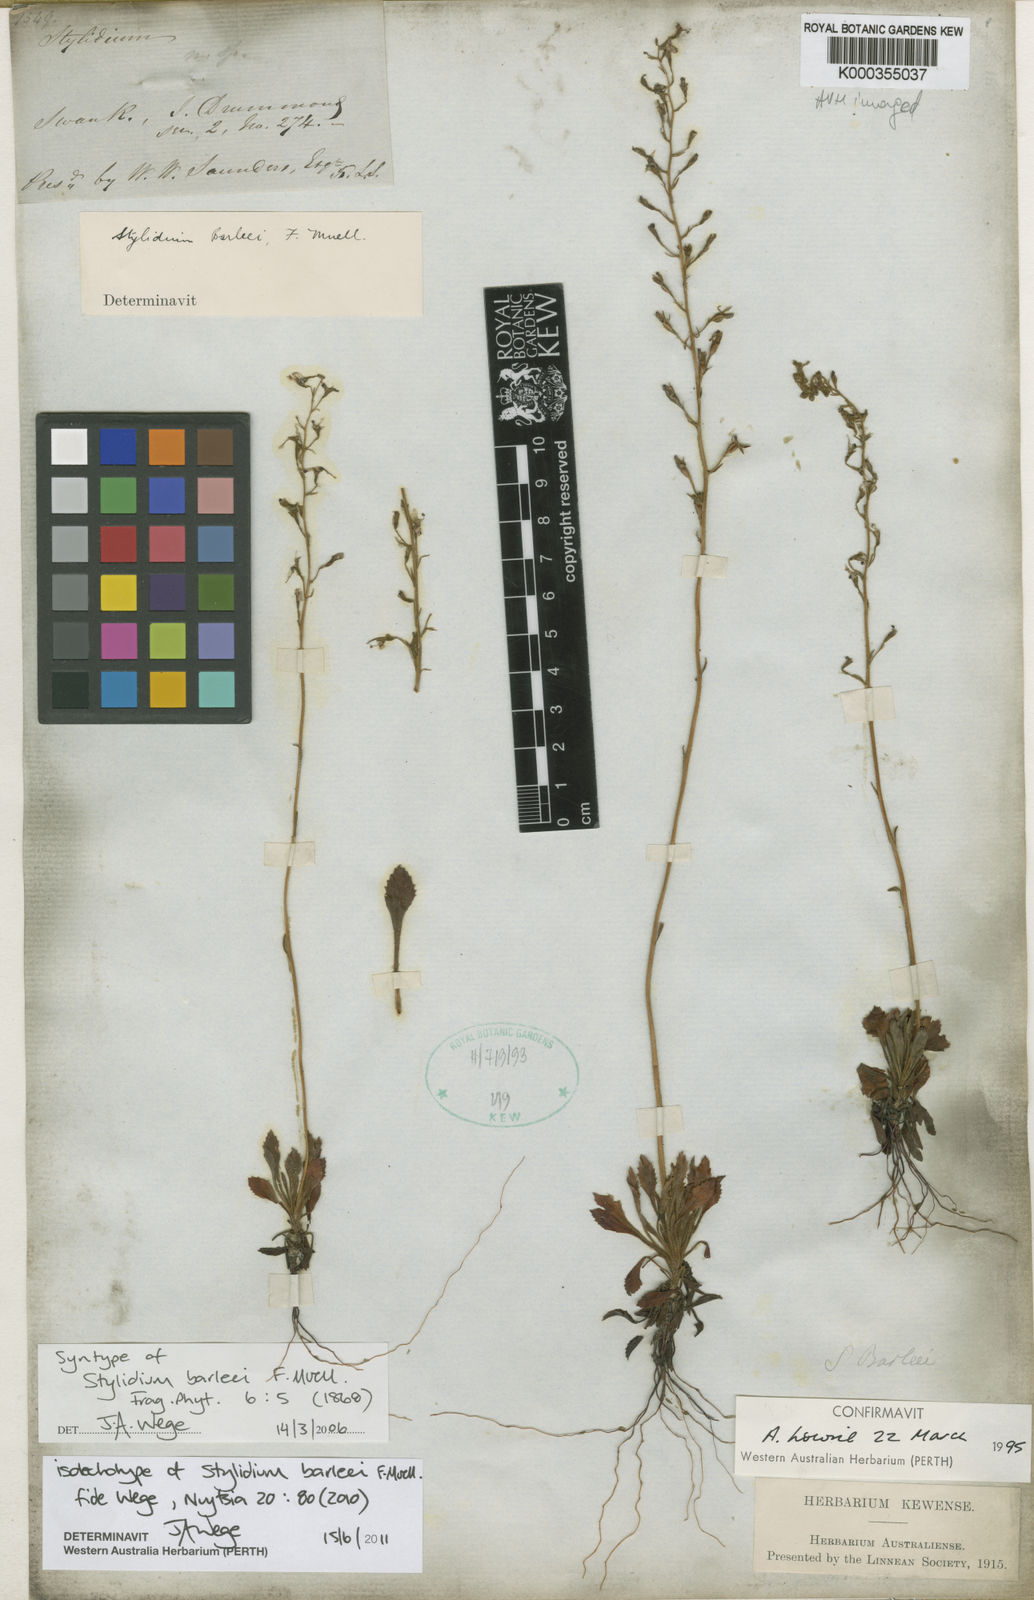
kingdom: Plantae
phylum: Tracheophyta
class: Magnoliopsida
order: Asterales
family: Stylidiaceae
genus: Stylidium
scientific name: Stylidium barleei
